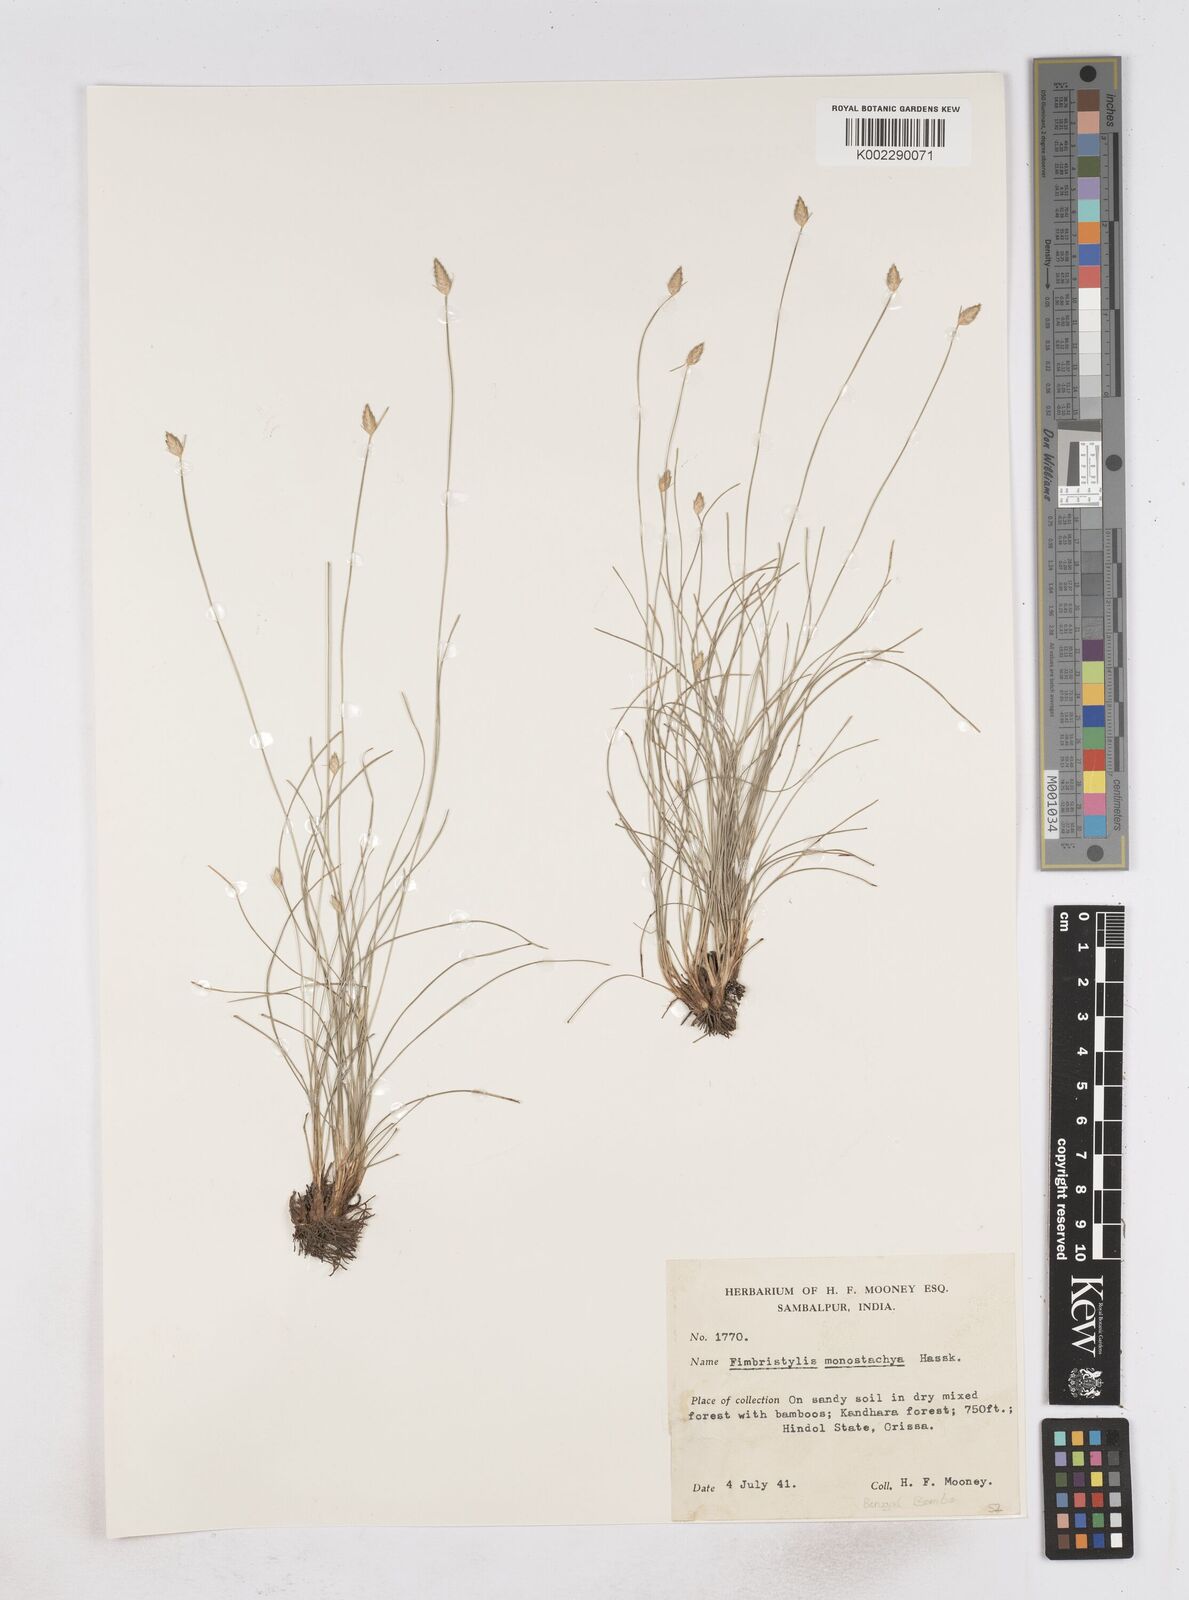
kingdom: Plantae
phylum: Tracheophyta
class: Liliopsida
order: Poales
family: Cyperaceae
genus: Abildgaardia
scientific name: Abildgaardia ovata
